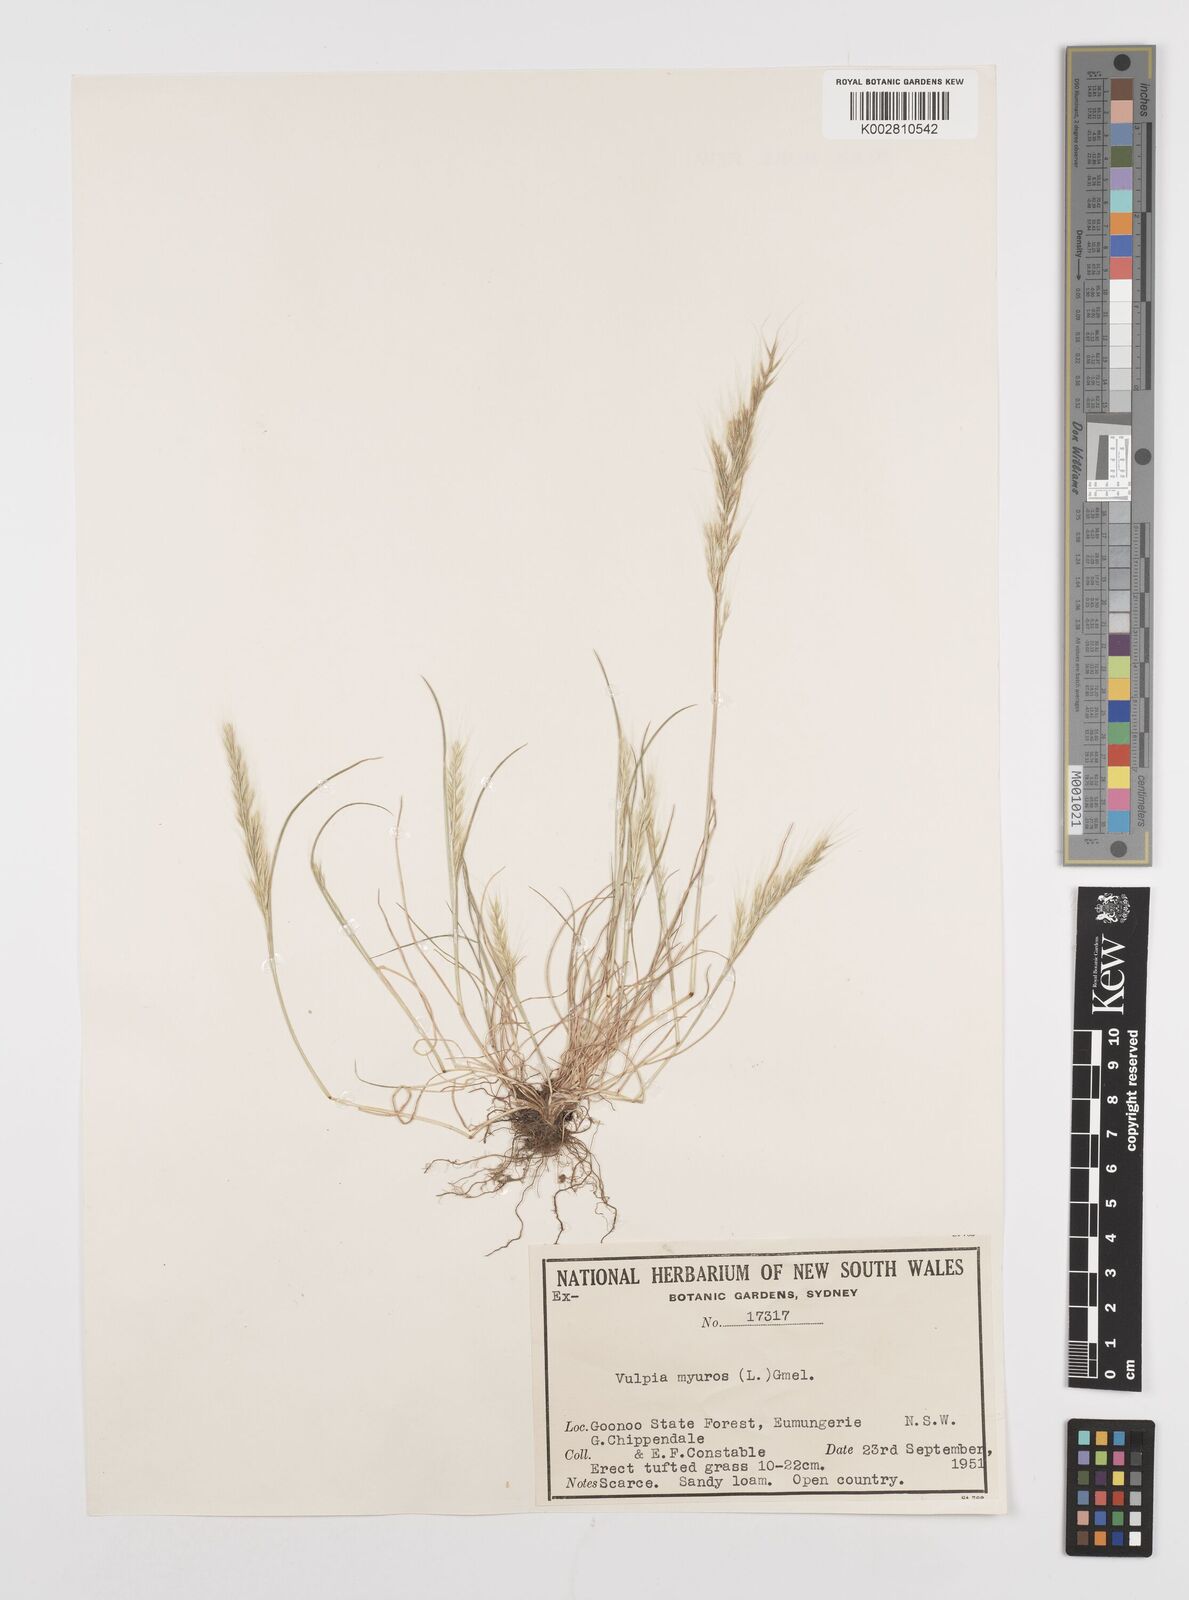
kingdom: Plantae
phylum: Tracheophyta
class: Liliopsida
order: Poales
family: Poaceae
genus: Festuca
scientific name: Festuca myuros
